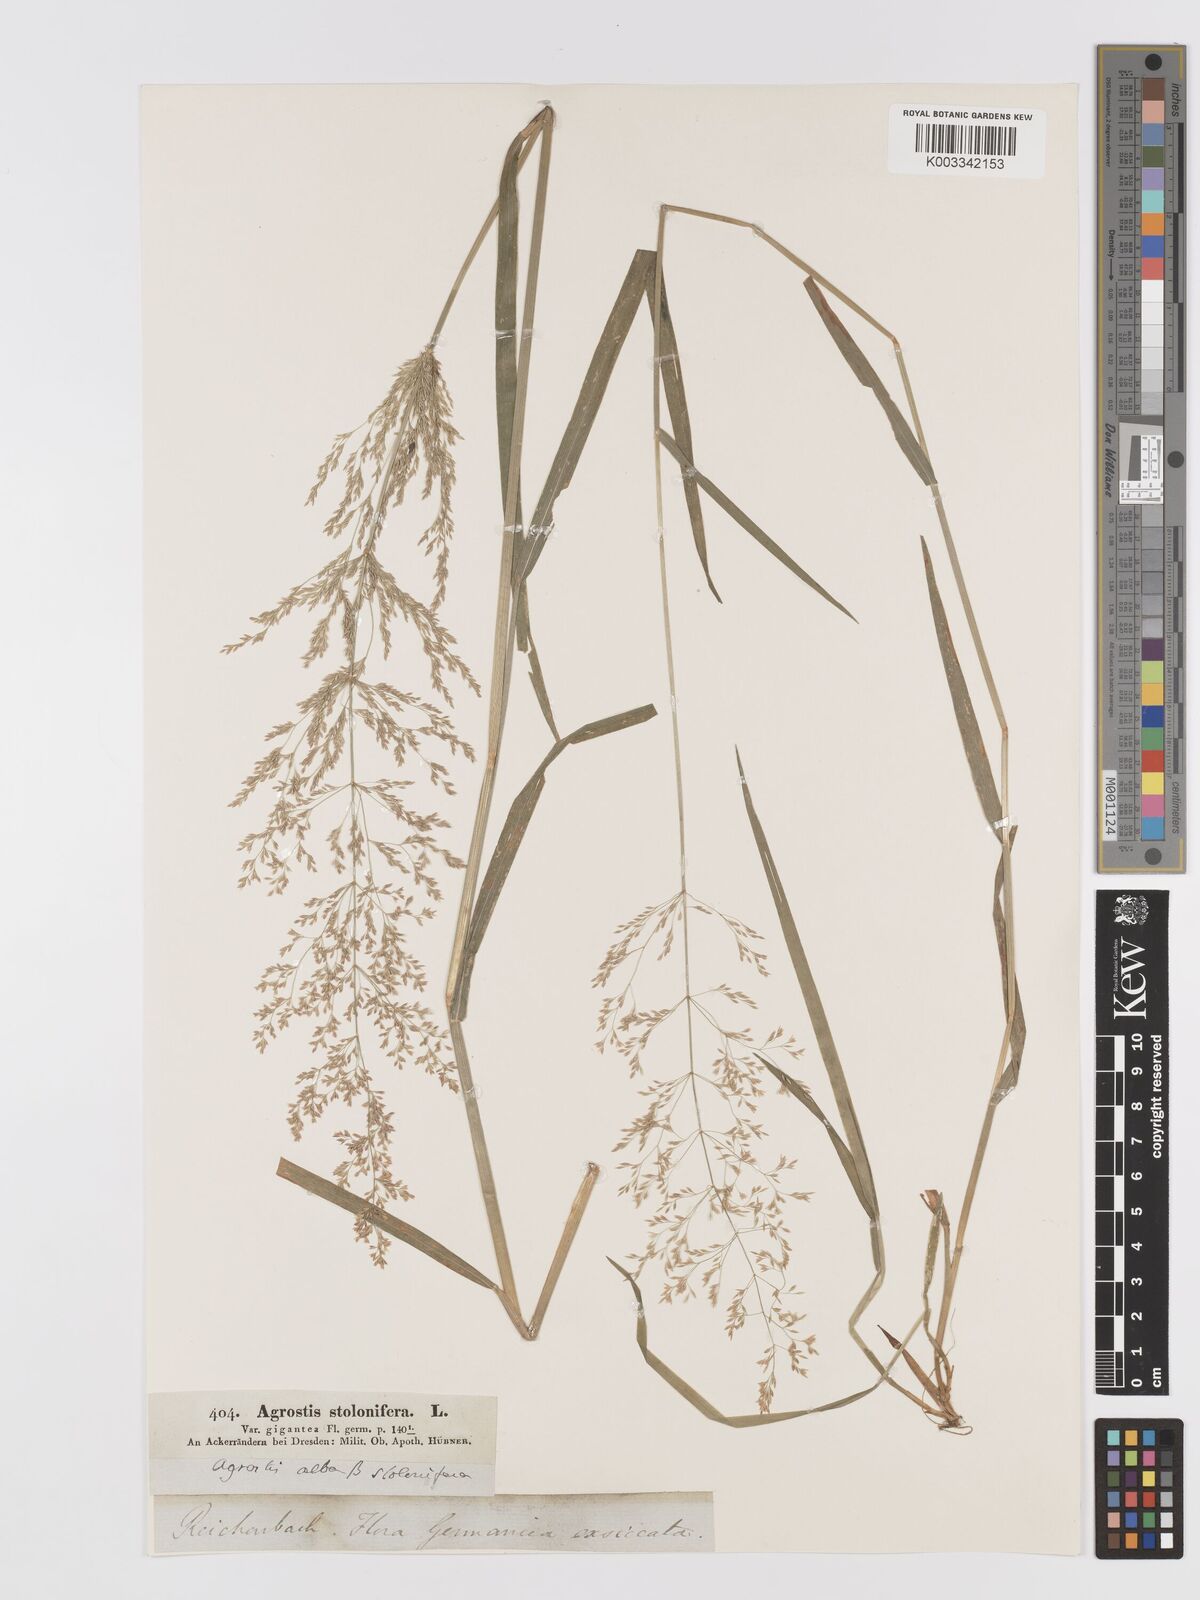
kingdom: Plantae
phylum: Tracheophyta
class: Liliopsida
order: Poales
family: Poaceae
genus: Agrostis
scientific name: Agrostis stolonifera
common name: Creeping bentgrass
